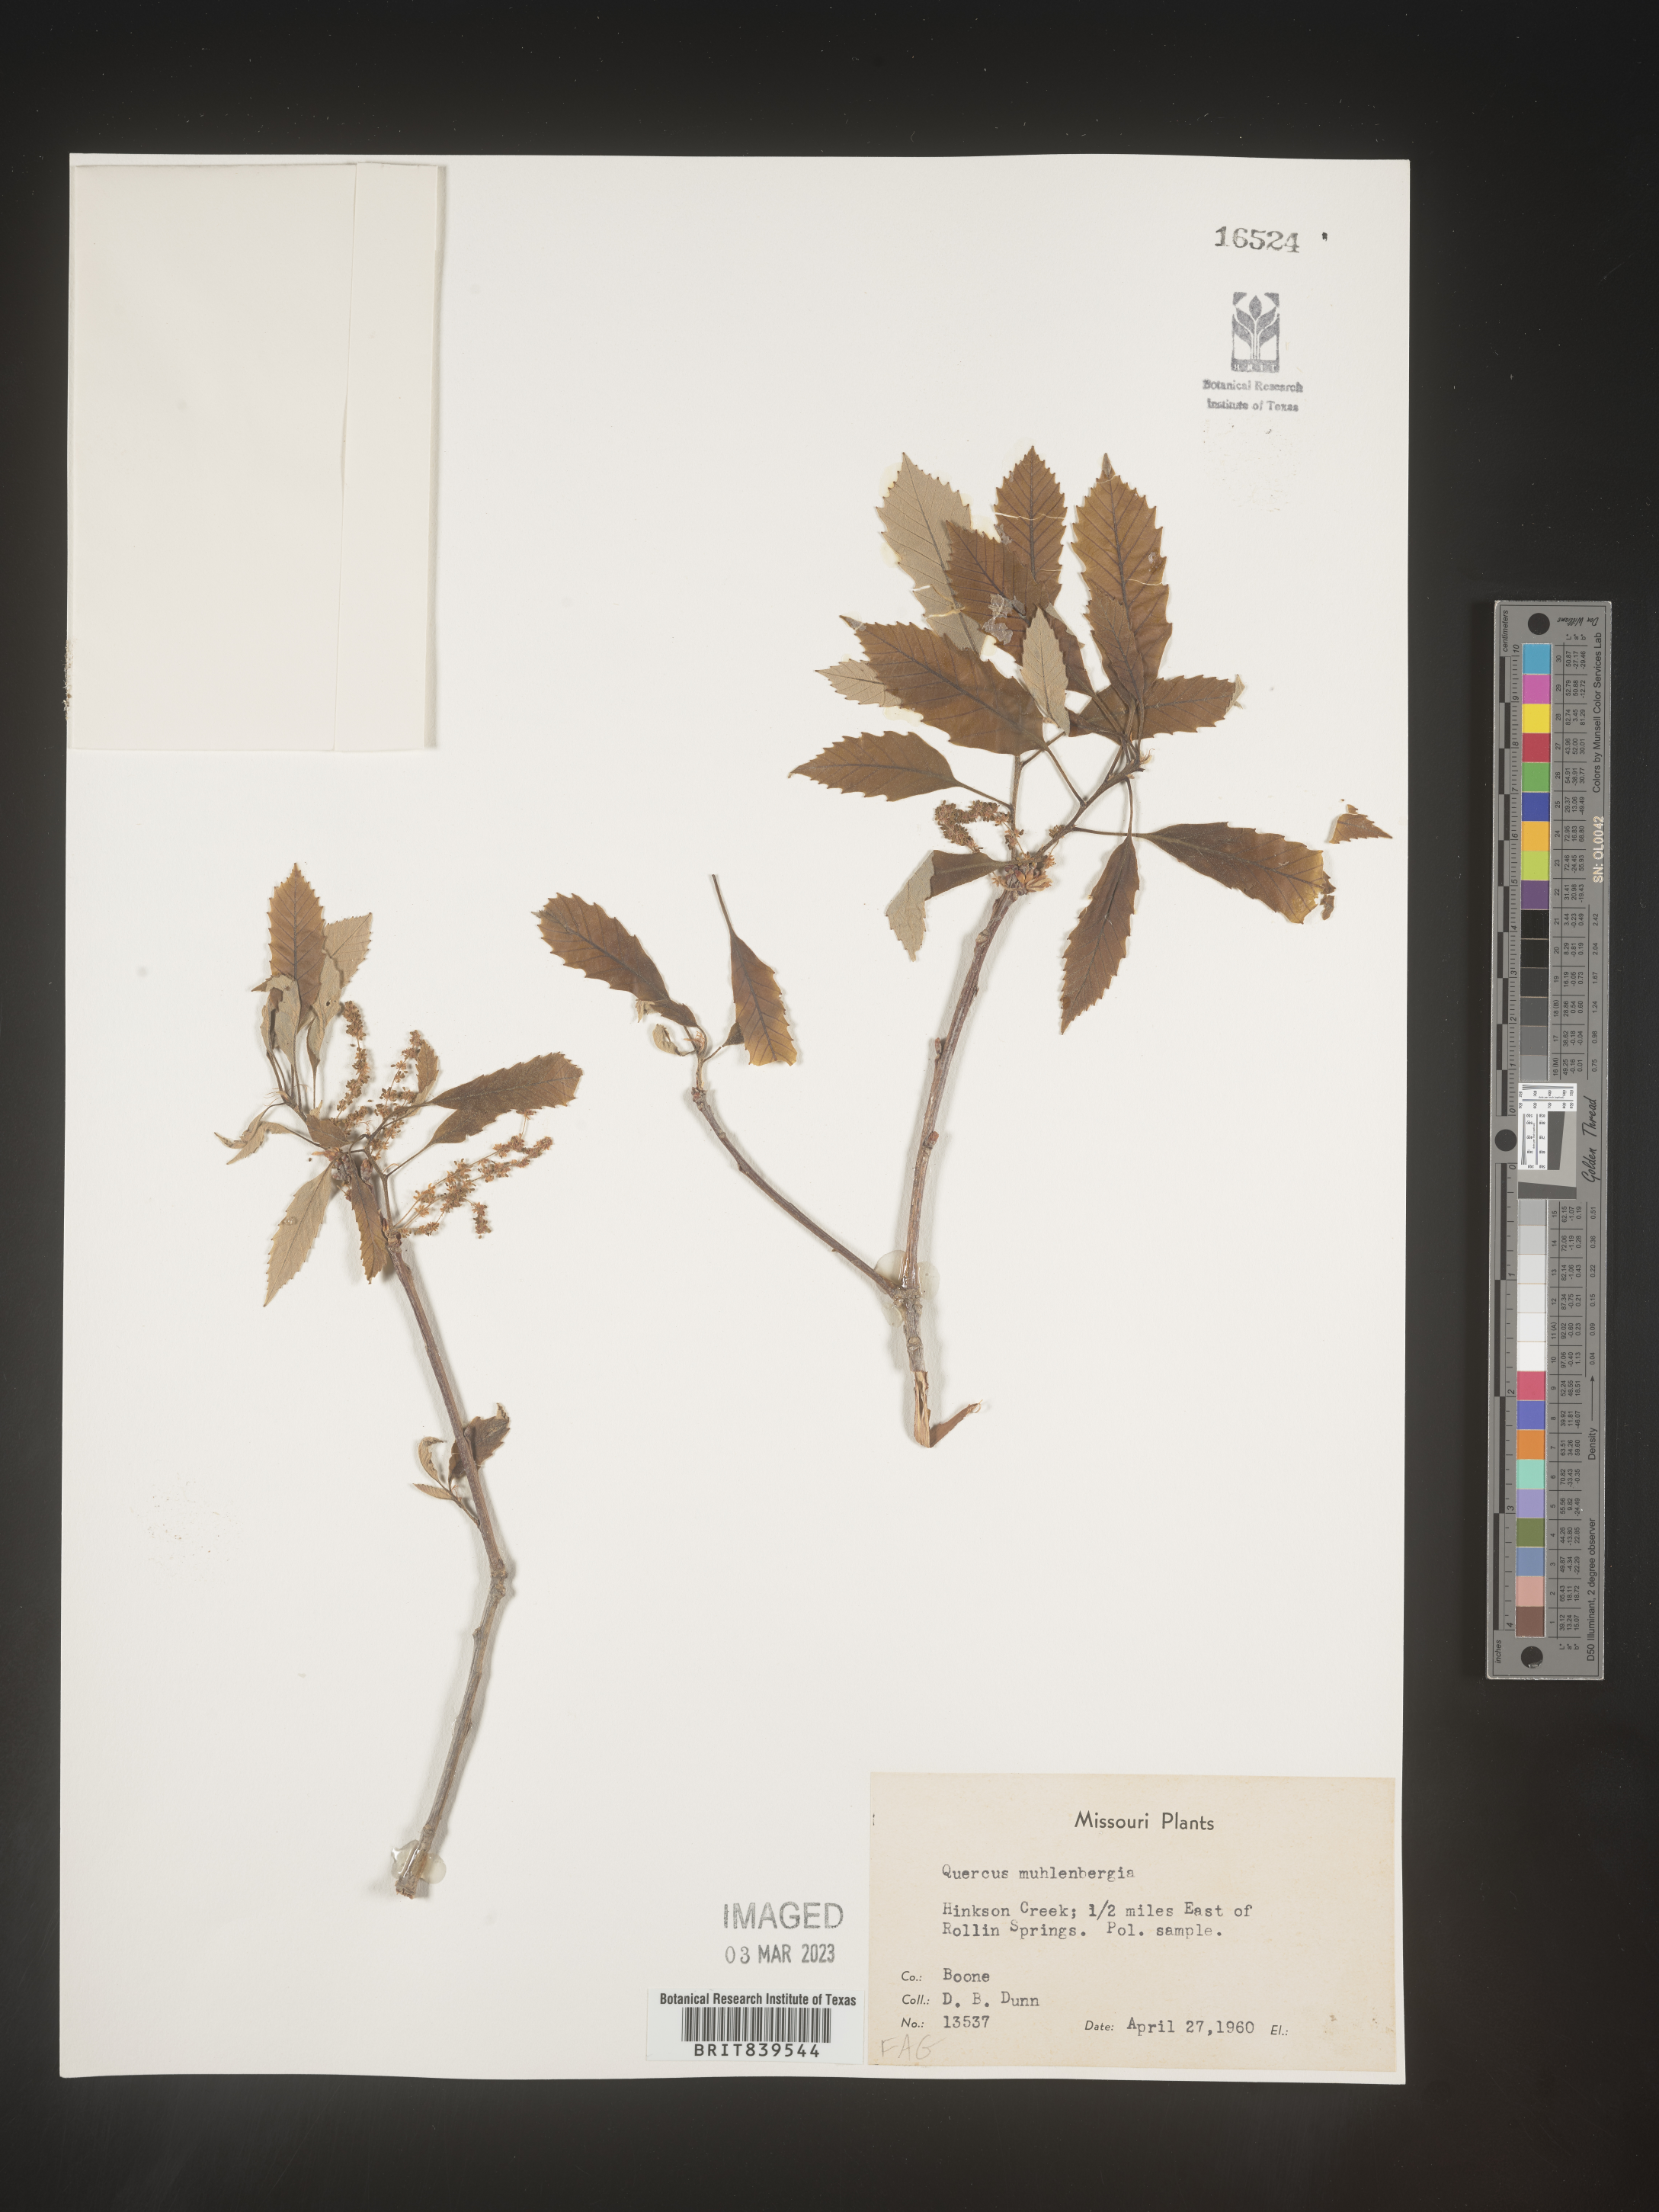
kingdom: Plantae
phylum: Tracheophyta
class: Magnoliopsida
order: Fagales
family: Fagaceae
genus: Quercus
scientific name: Quercus muehlenbergii
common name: Chinkapin oak
